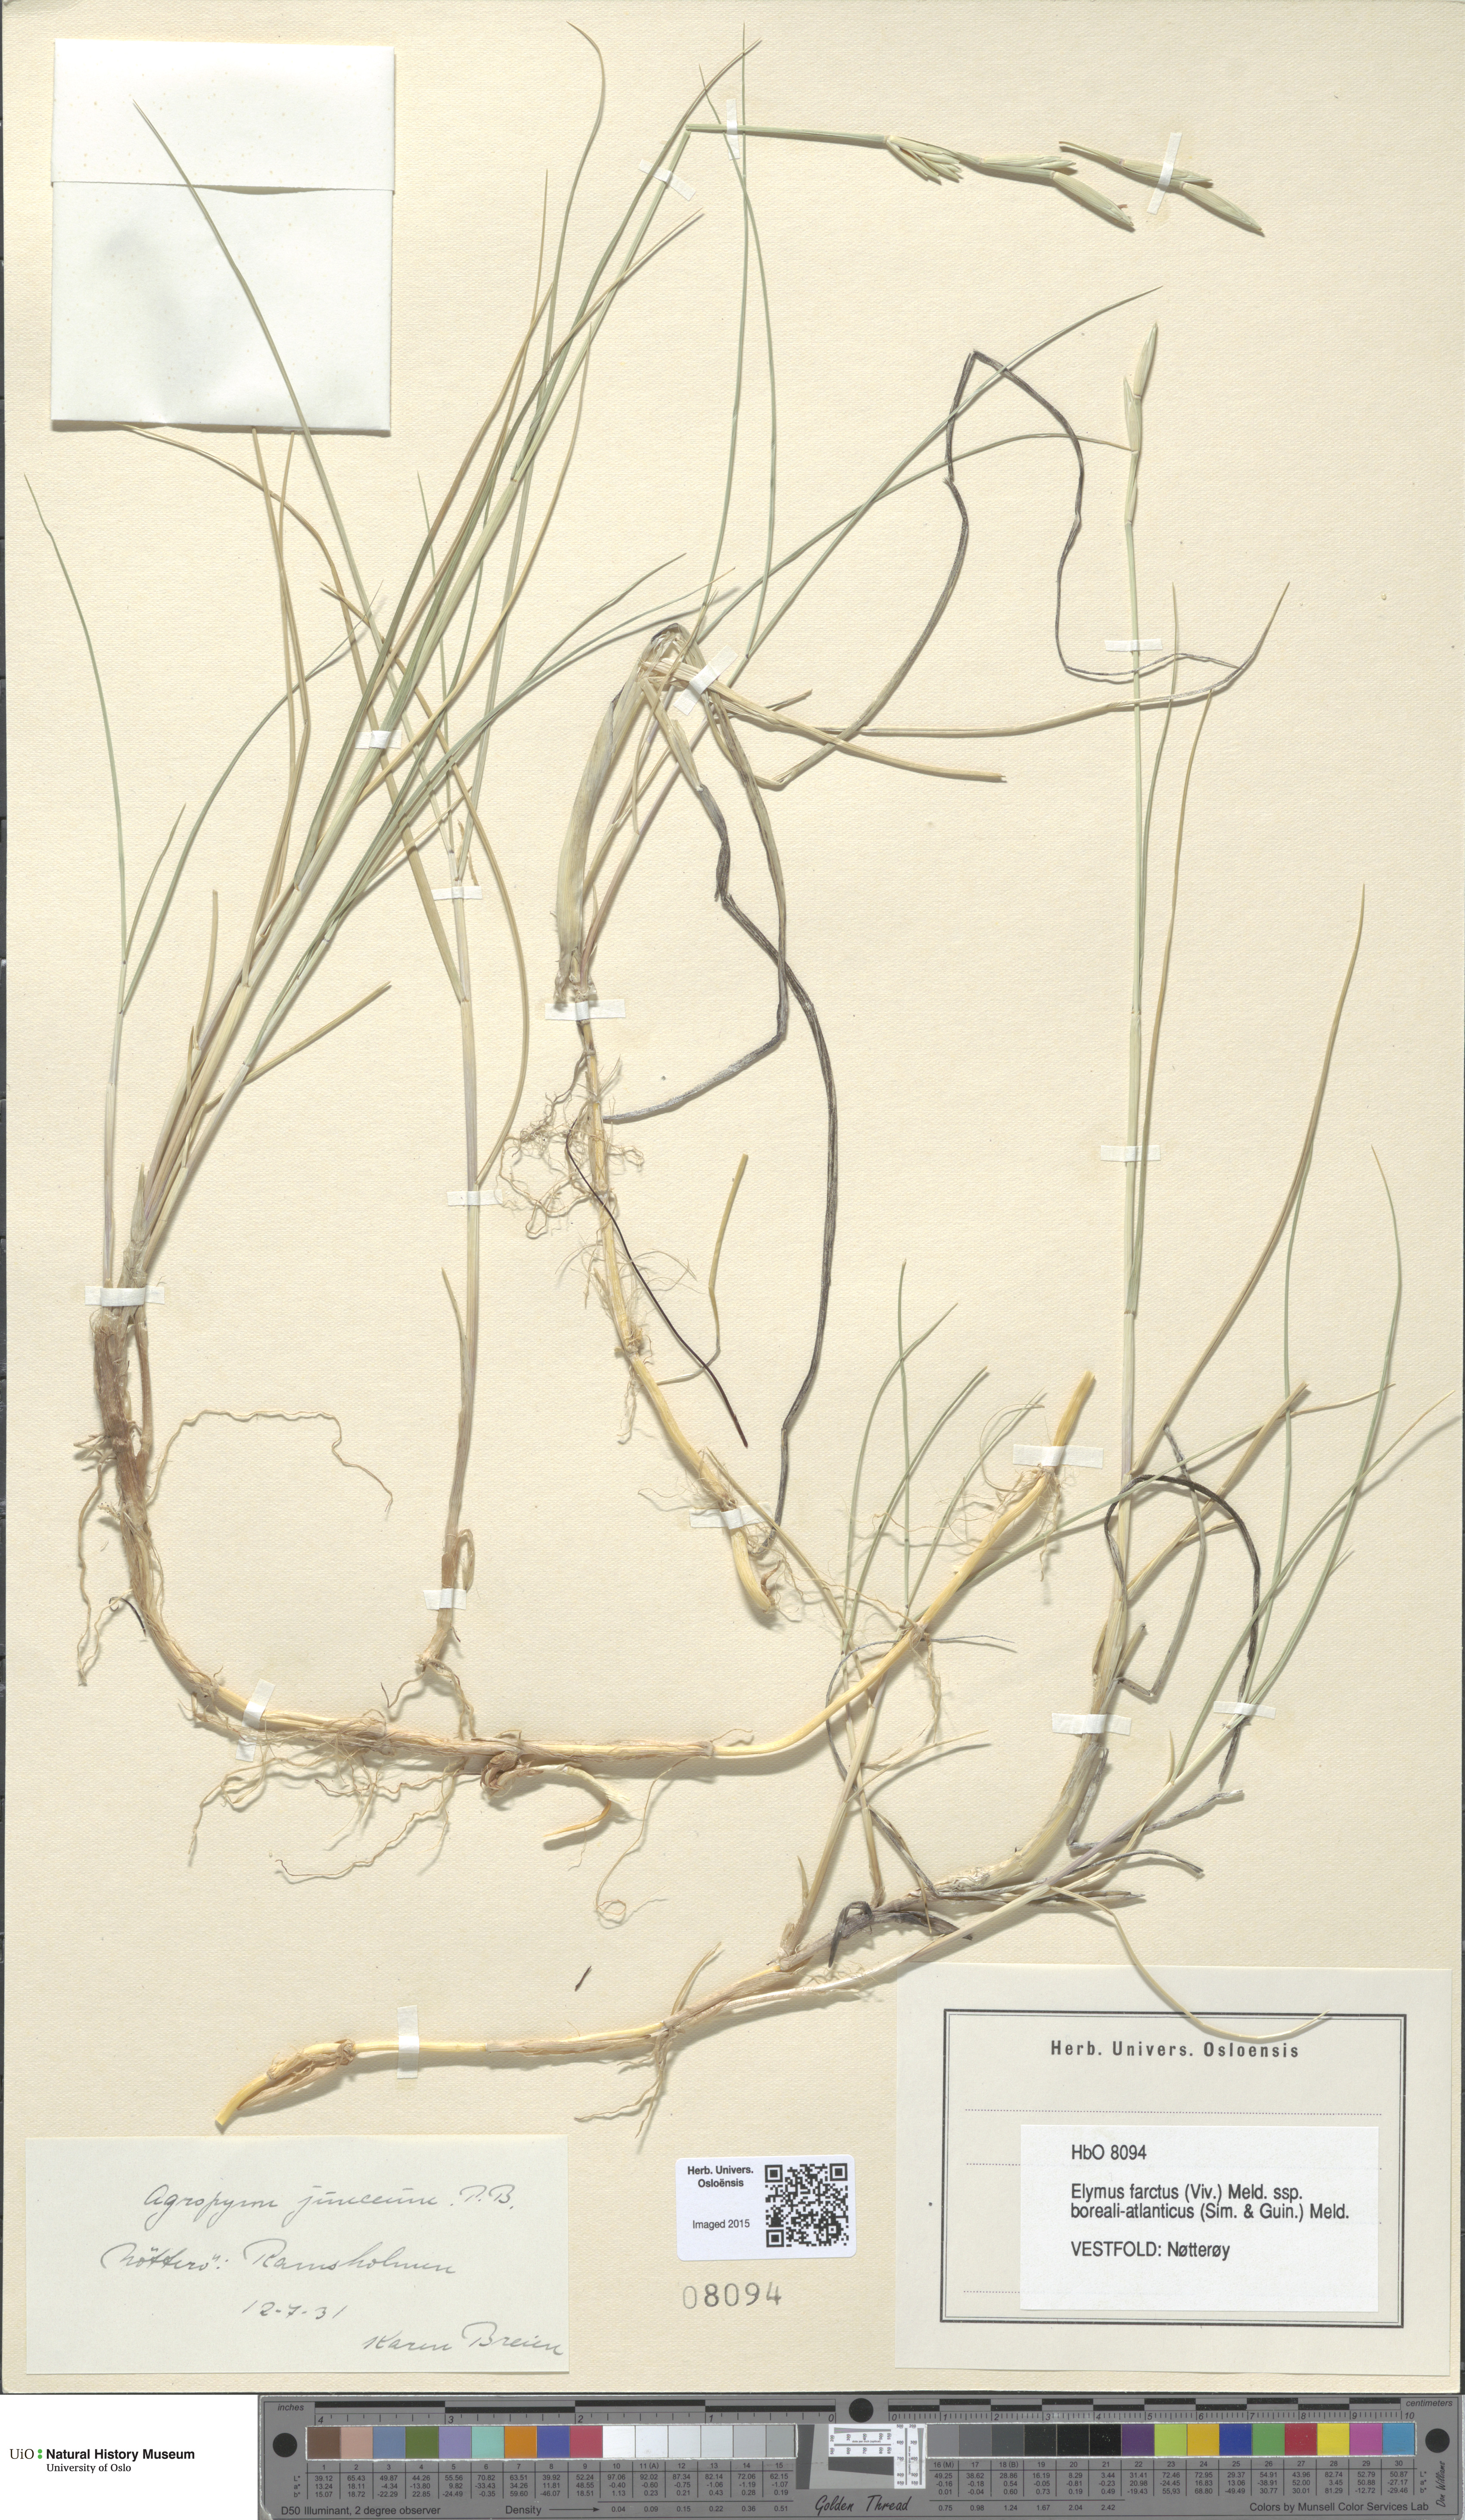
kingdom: Plantae
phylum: Tracheophyta
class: Liliopsida
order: Poales
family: Poaceae
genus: Thinopyrum
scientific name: Thinopyrum junceum
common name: Russian wheatgrass
